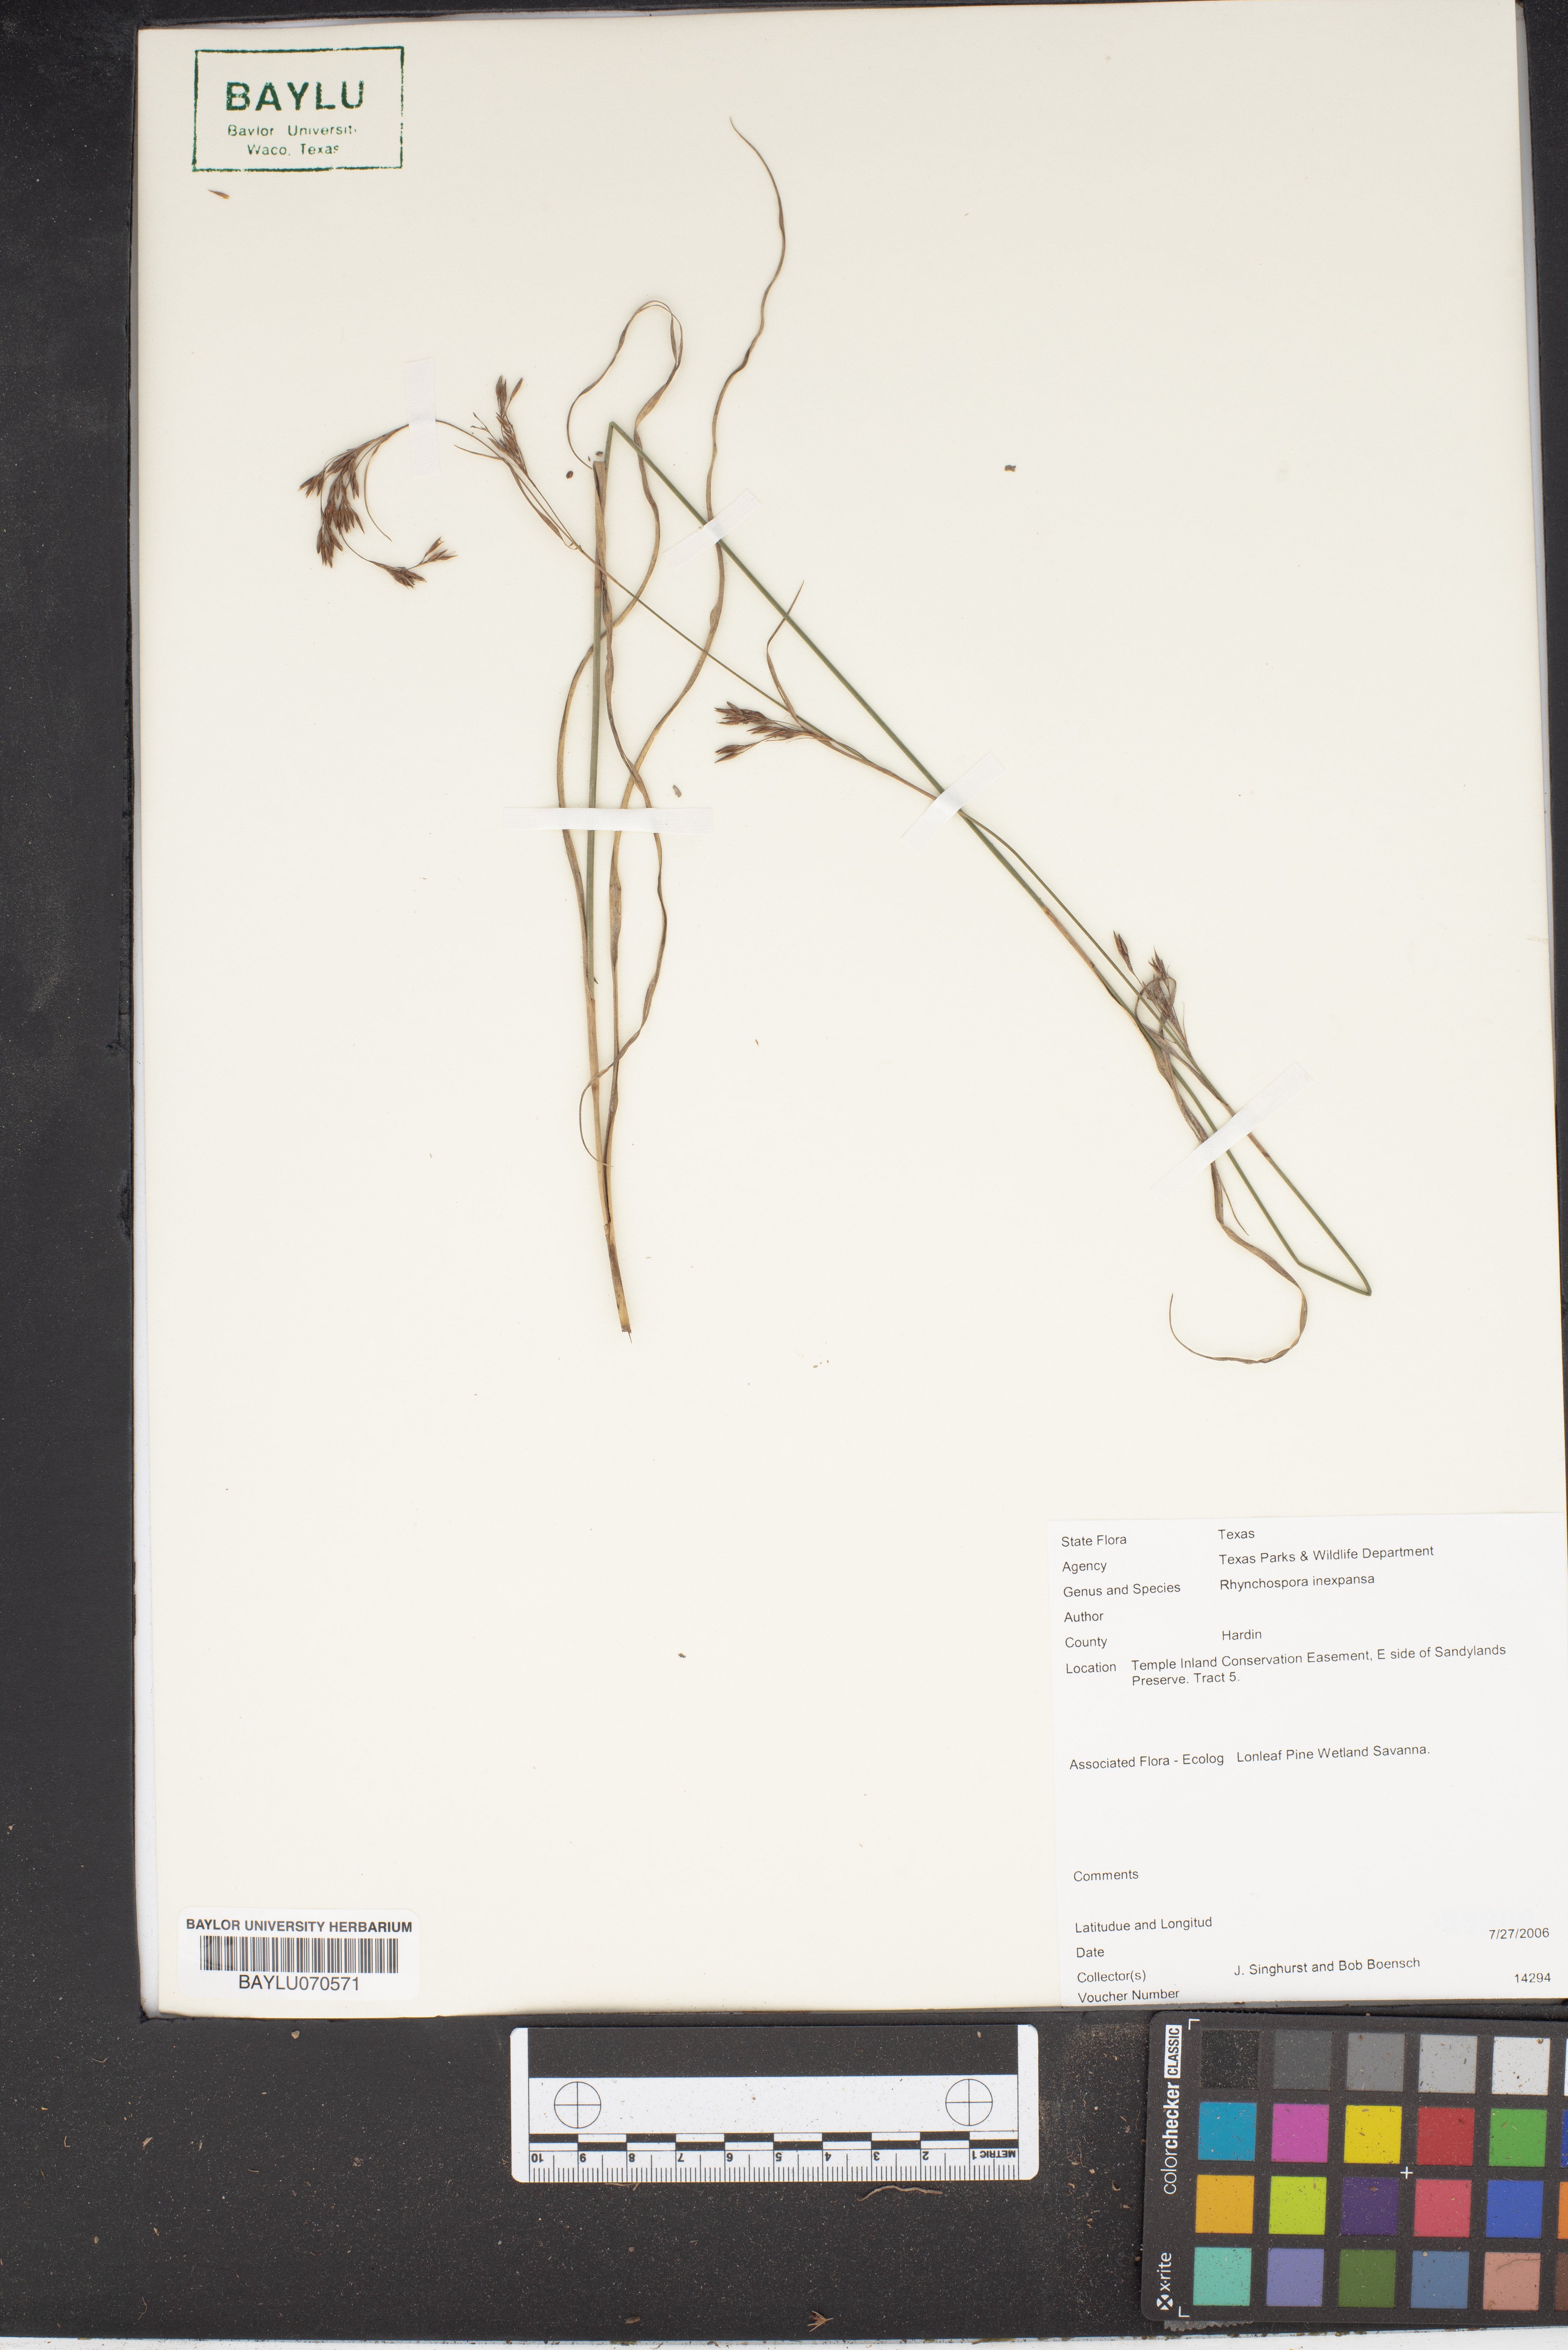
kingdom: Plantae
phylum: Tracheophyta
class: Liliopsida
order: Poales
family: Cyperaceae
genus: Rhynchospora
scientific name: Rhynchospora inexpansa
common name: Nodding beaksedge
